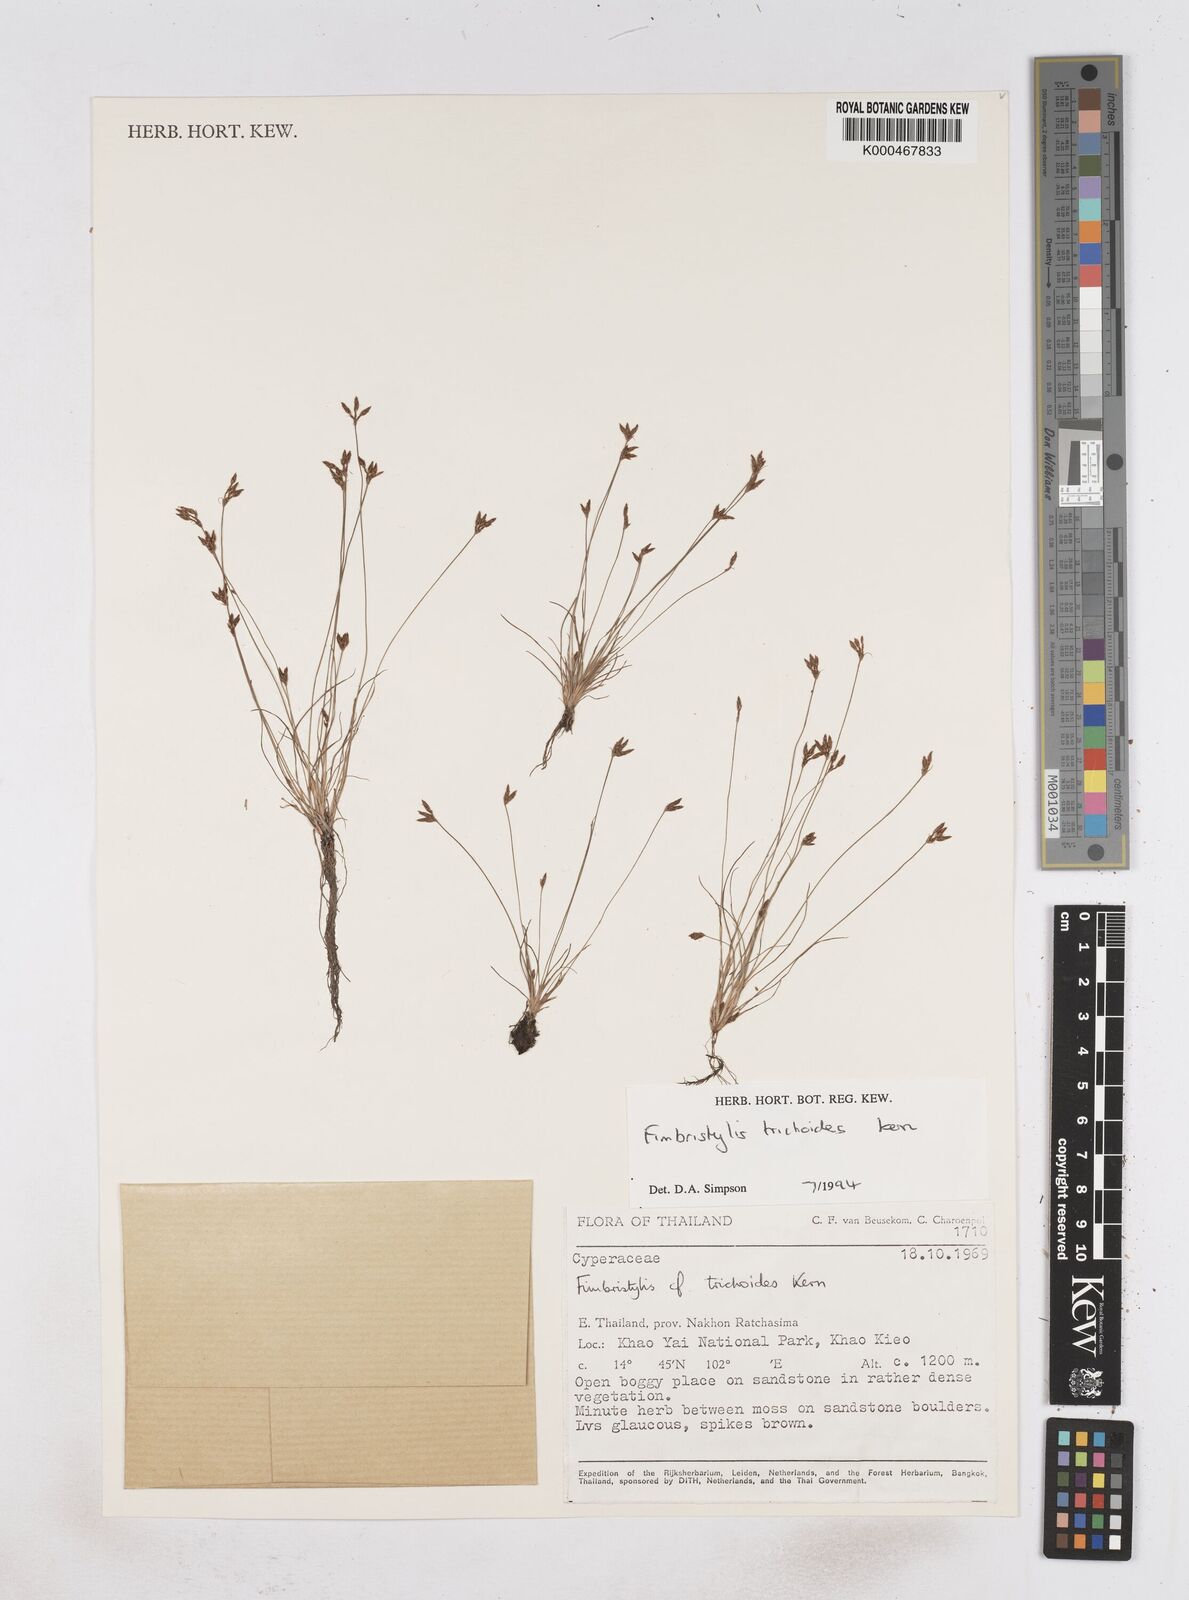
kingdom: Plantae
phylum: Tracheophyta
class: Liliopsida
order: Poales
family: Cyperaceae
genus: Fimbristylis
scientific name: Fimbristylis cinnamometorum
